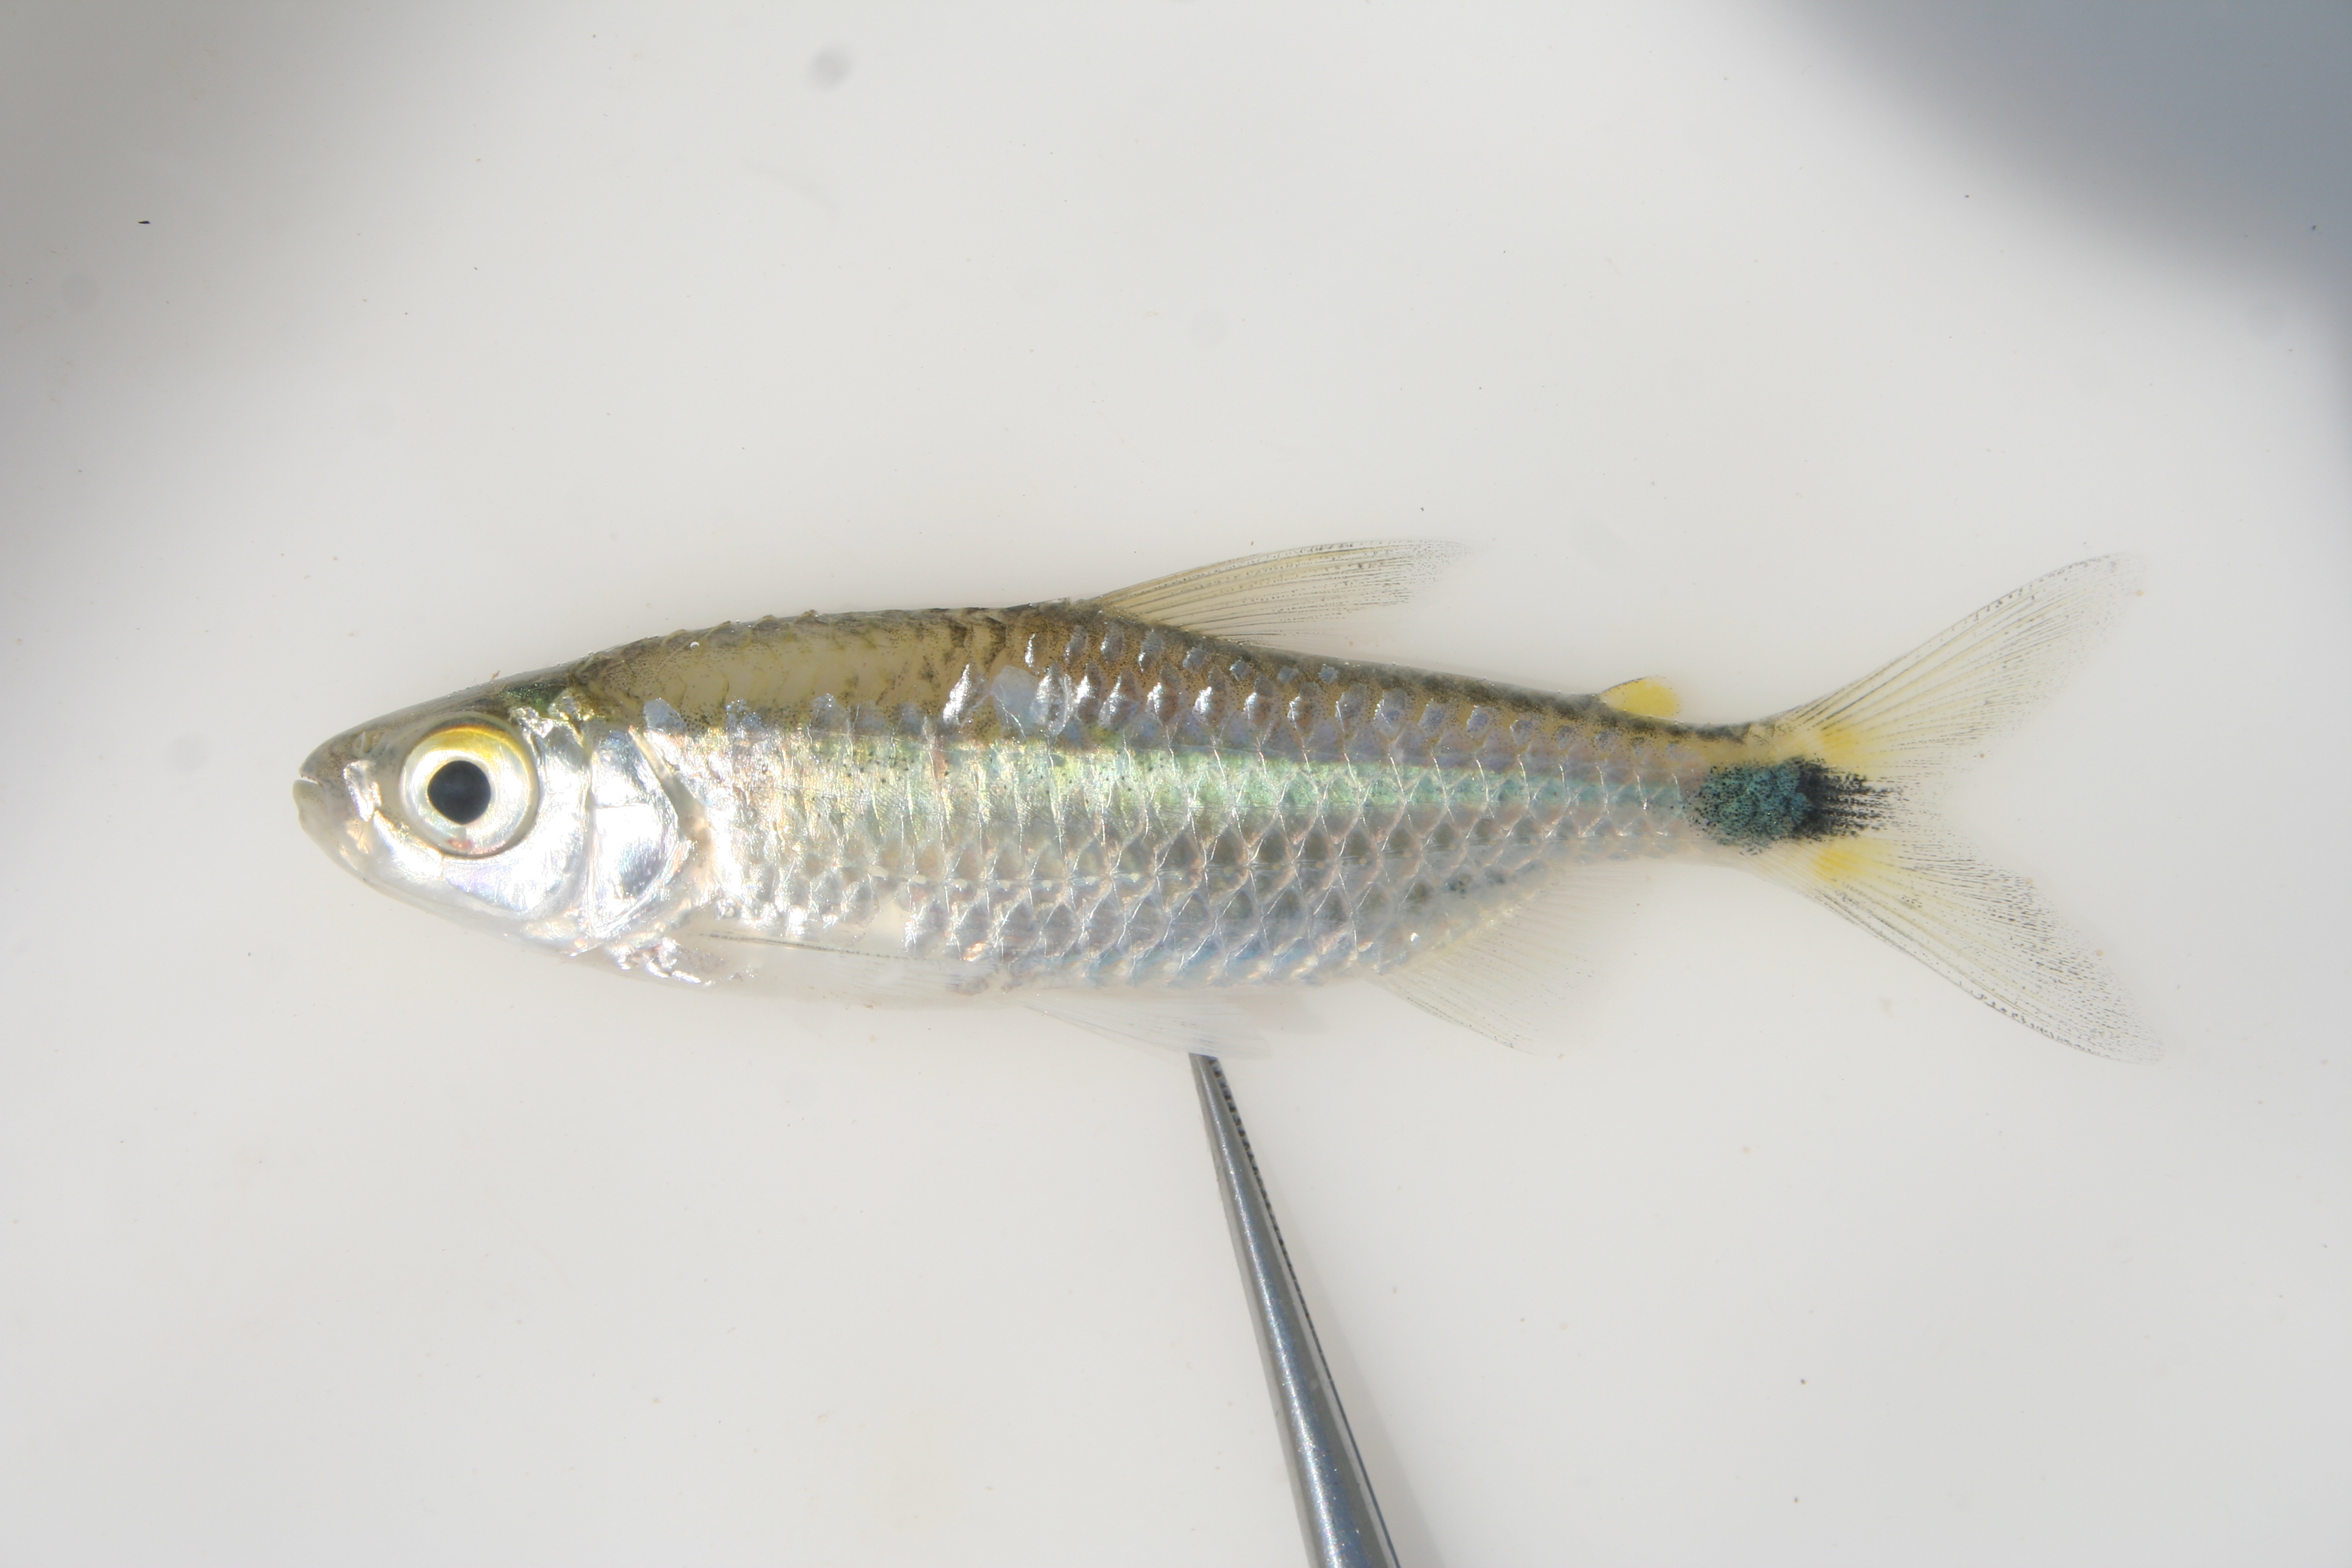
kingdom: Animalia
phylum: Chordata
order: Characiformes
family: Alestidae
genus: Brycinus
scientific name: Brycinus lateralis
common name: Striped robber
